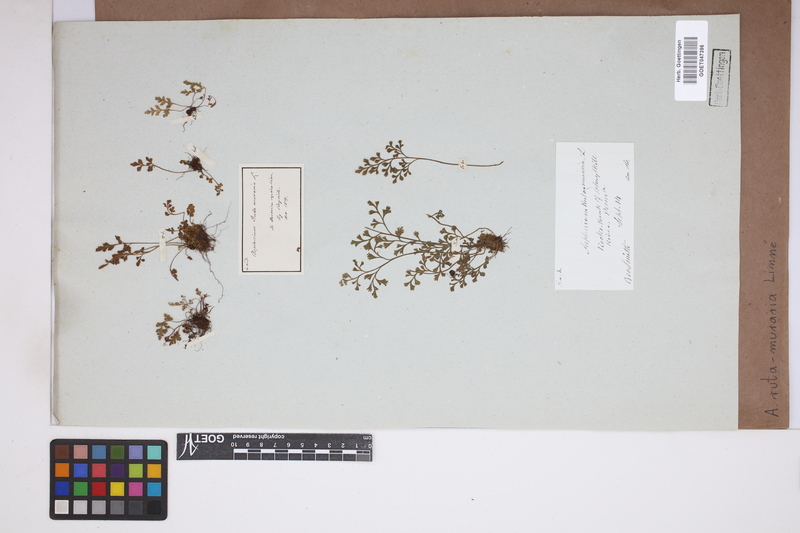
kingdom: Plantae
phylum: Tracheophyta
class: Polypodiopsida
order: Polypodiales
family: Aspleniaceae
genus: Asplenium
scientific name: Asplenium ruta-muraria
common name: Wall-rue
